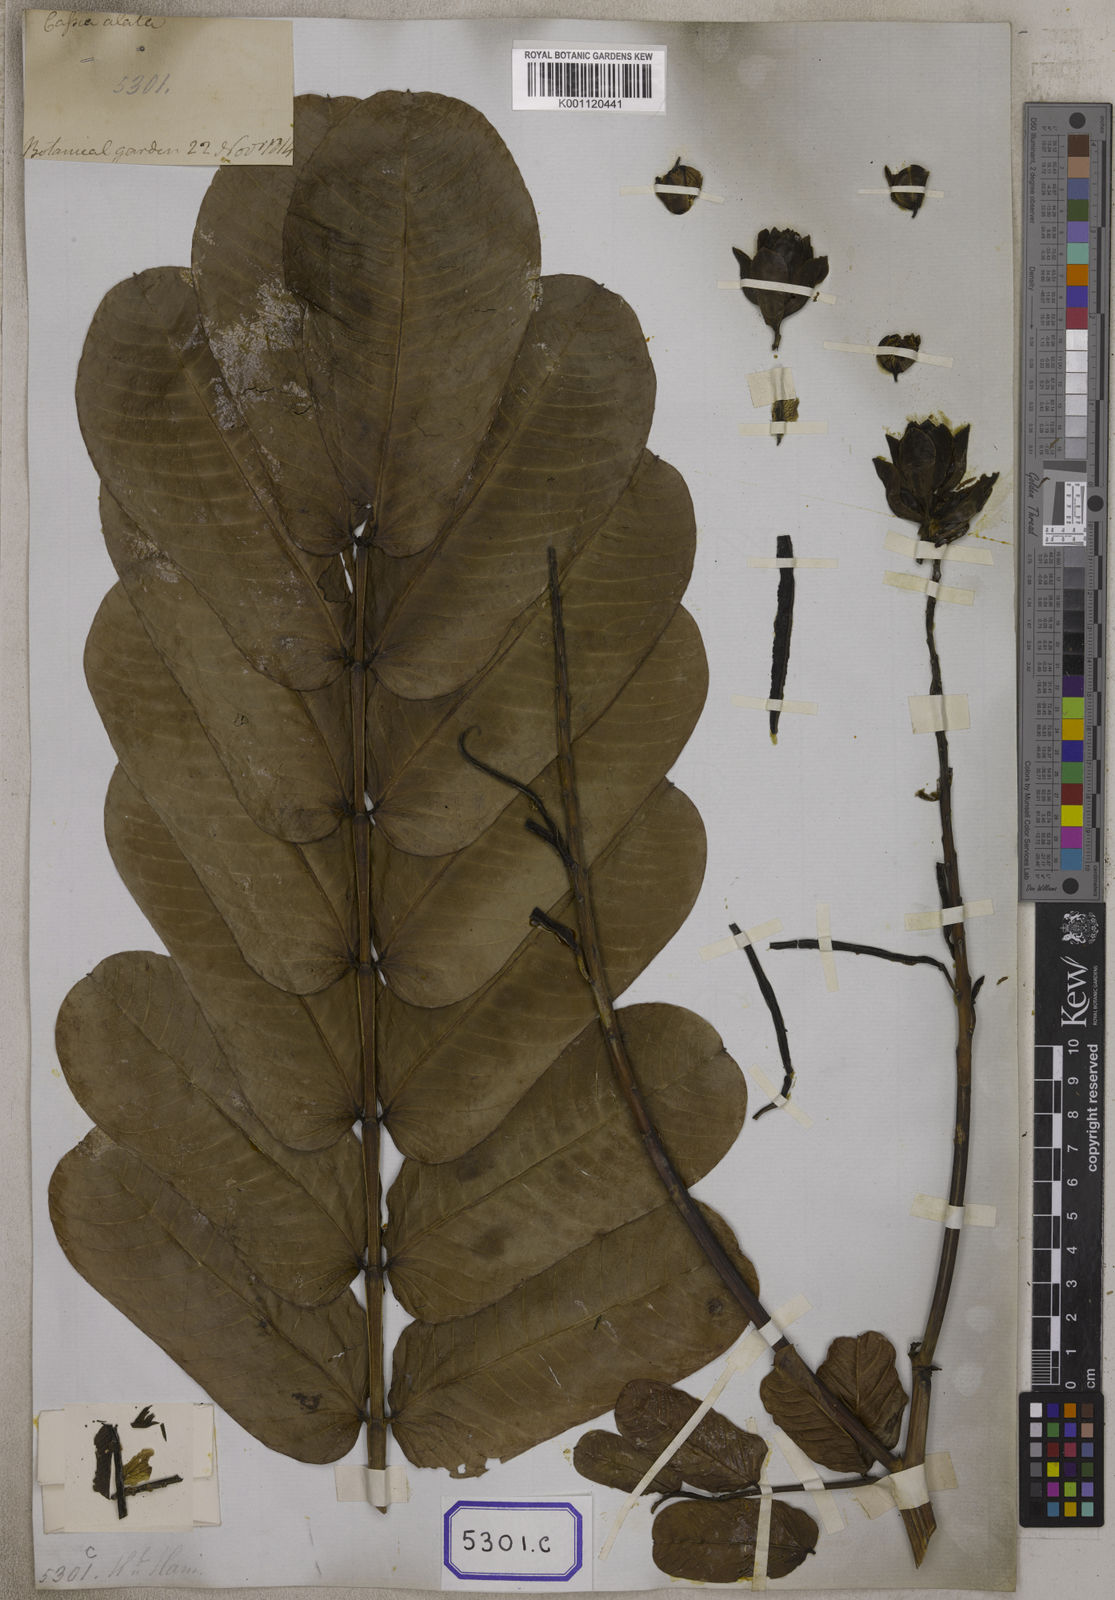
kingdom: Plantae
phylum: Tracheophyta
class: Magnoliopsida
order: Fabales
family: Fabaceae
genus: Senna
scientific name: Senna alata
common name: Emperor's candlesticks
